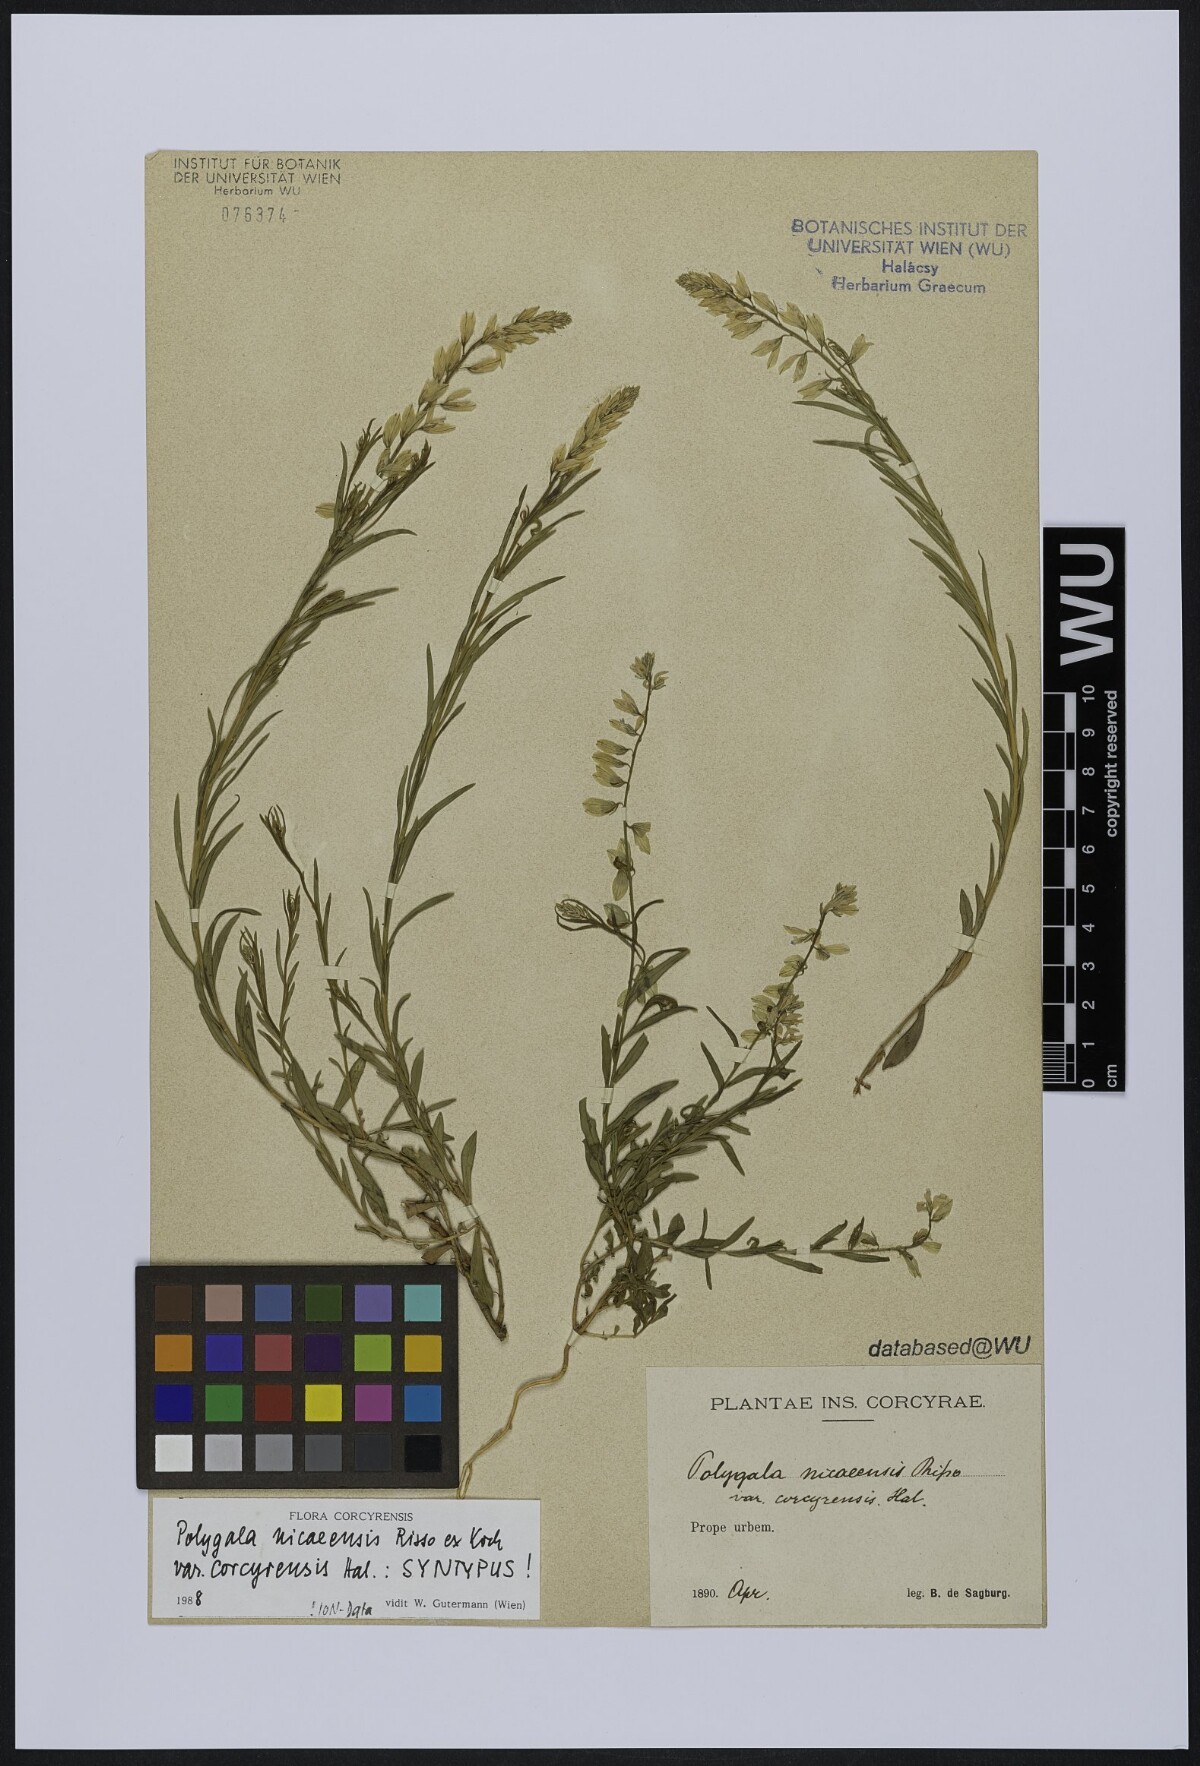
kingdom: Plantae
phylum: Tracheophyta
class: Magnoliopsida
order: Fabales
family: Polygalaceae
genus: Polygala
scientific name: Polygala nicaeensis
